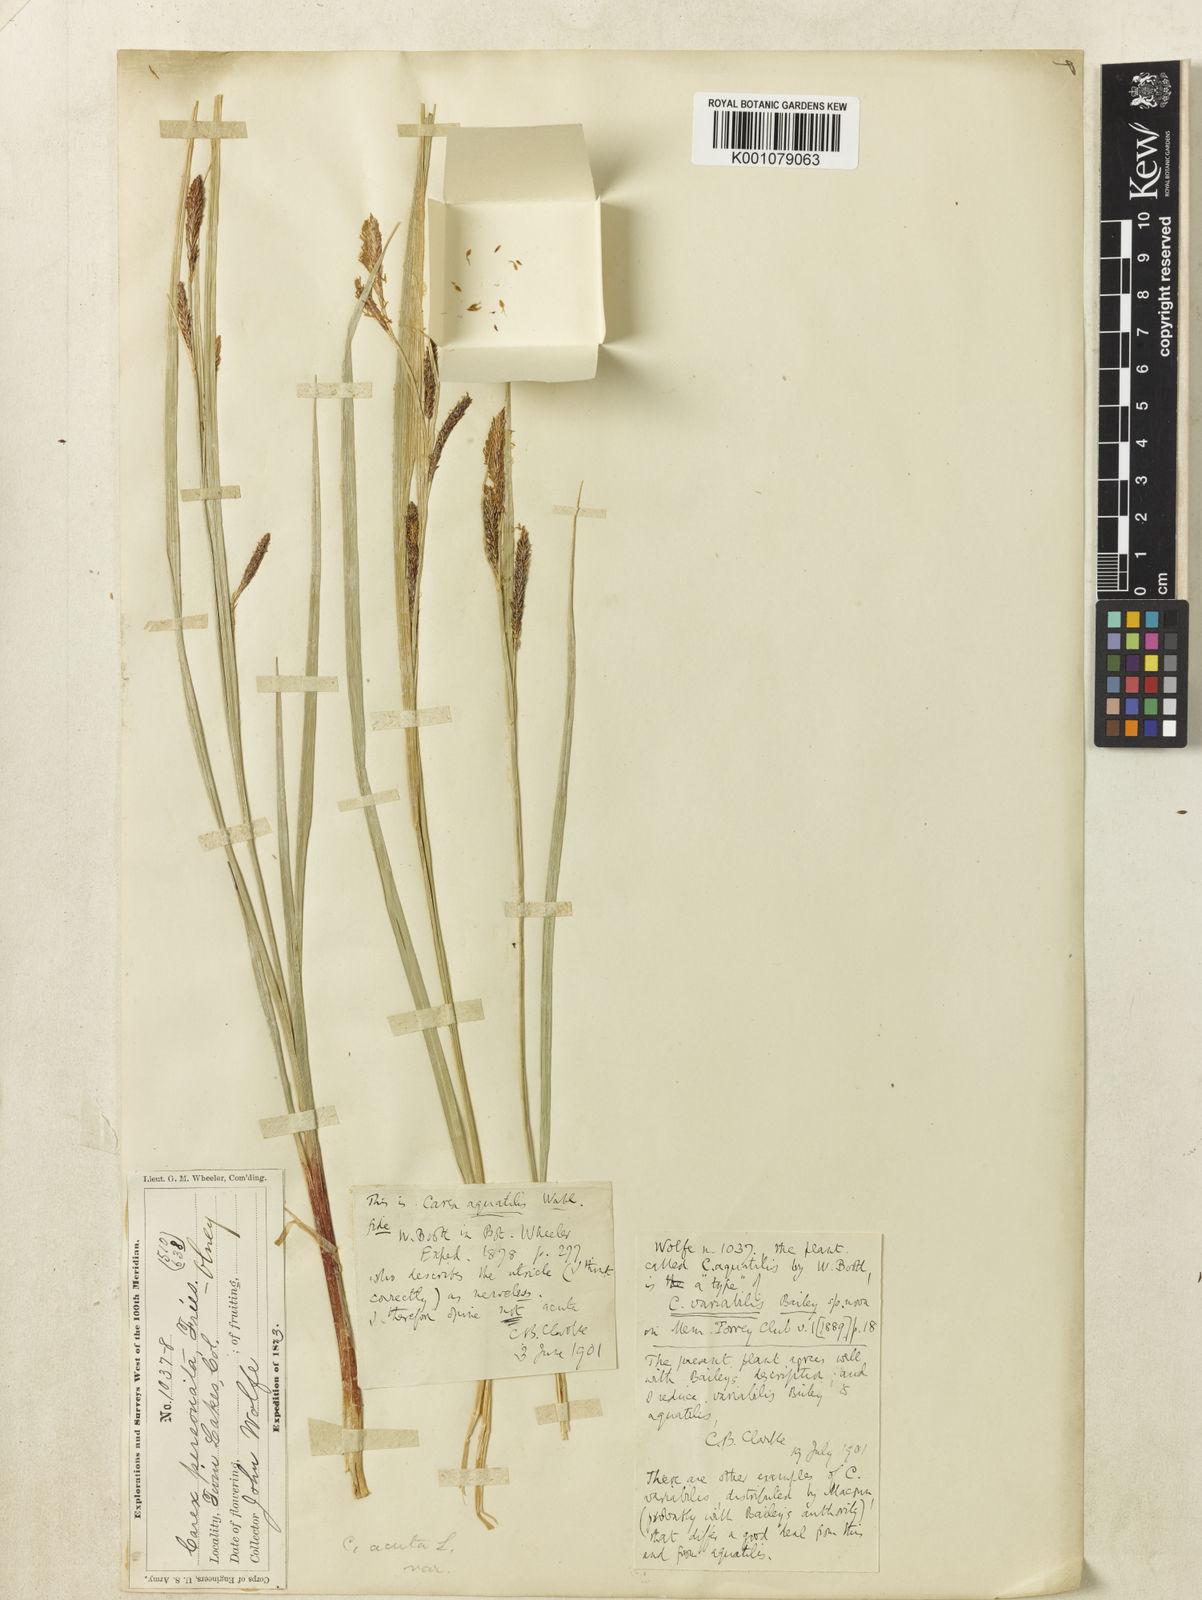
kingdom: Plantae
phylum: Tracheophyta
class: Liliopsida
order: Poales
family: Cyperaceae
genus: Carex
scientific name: Carex aquatilis
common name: Water sedge
